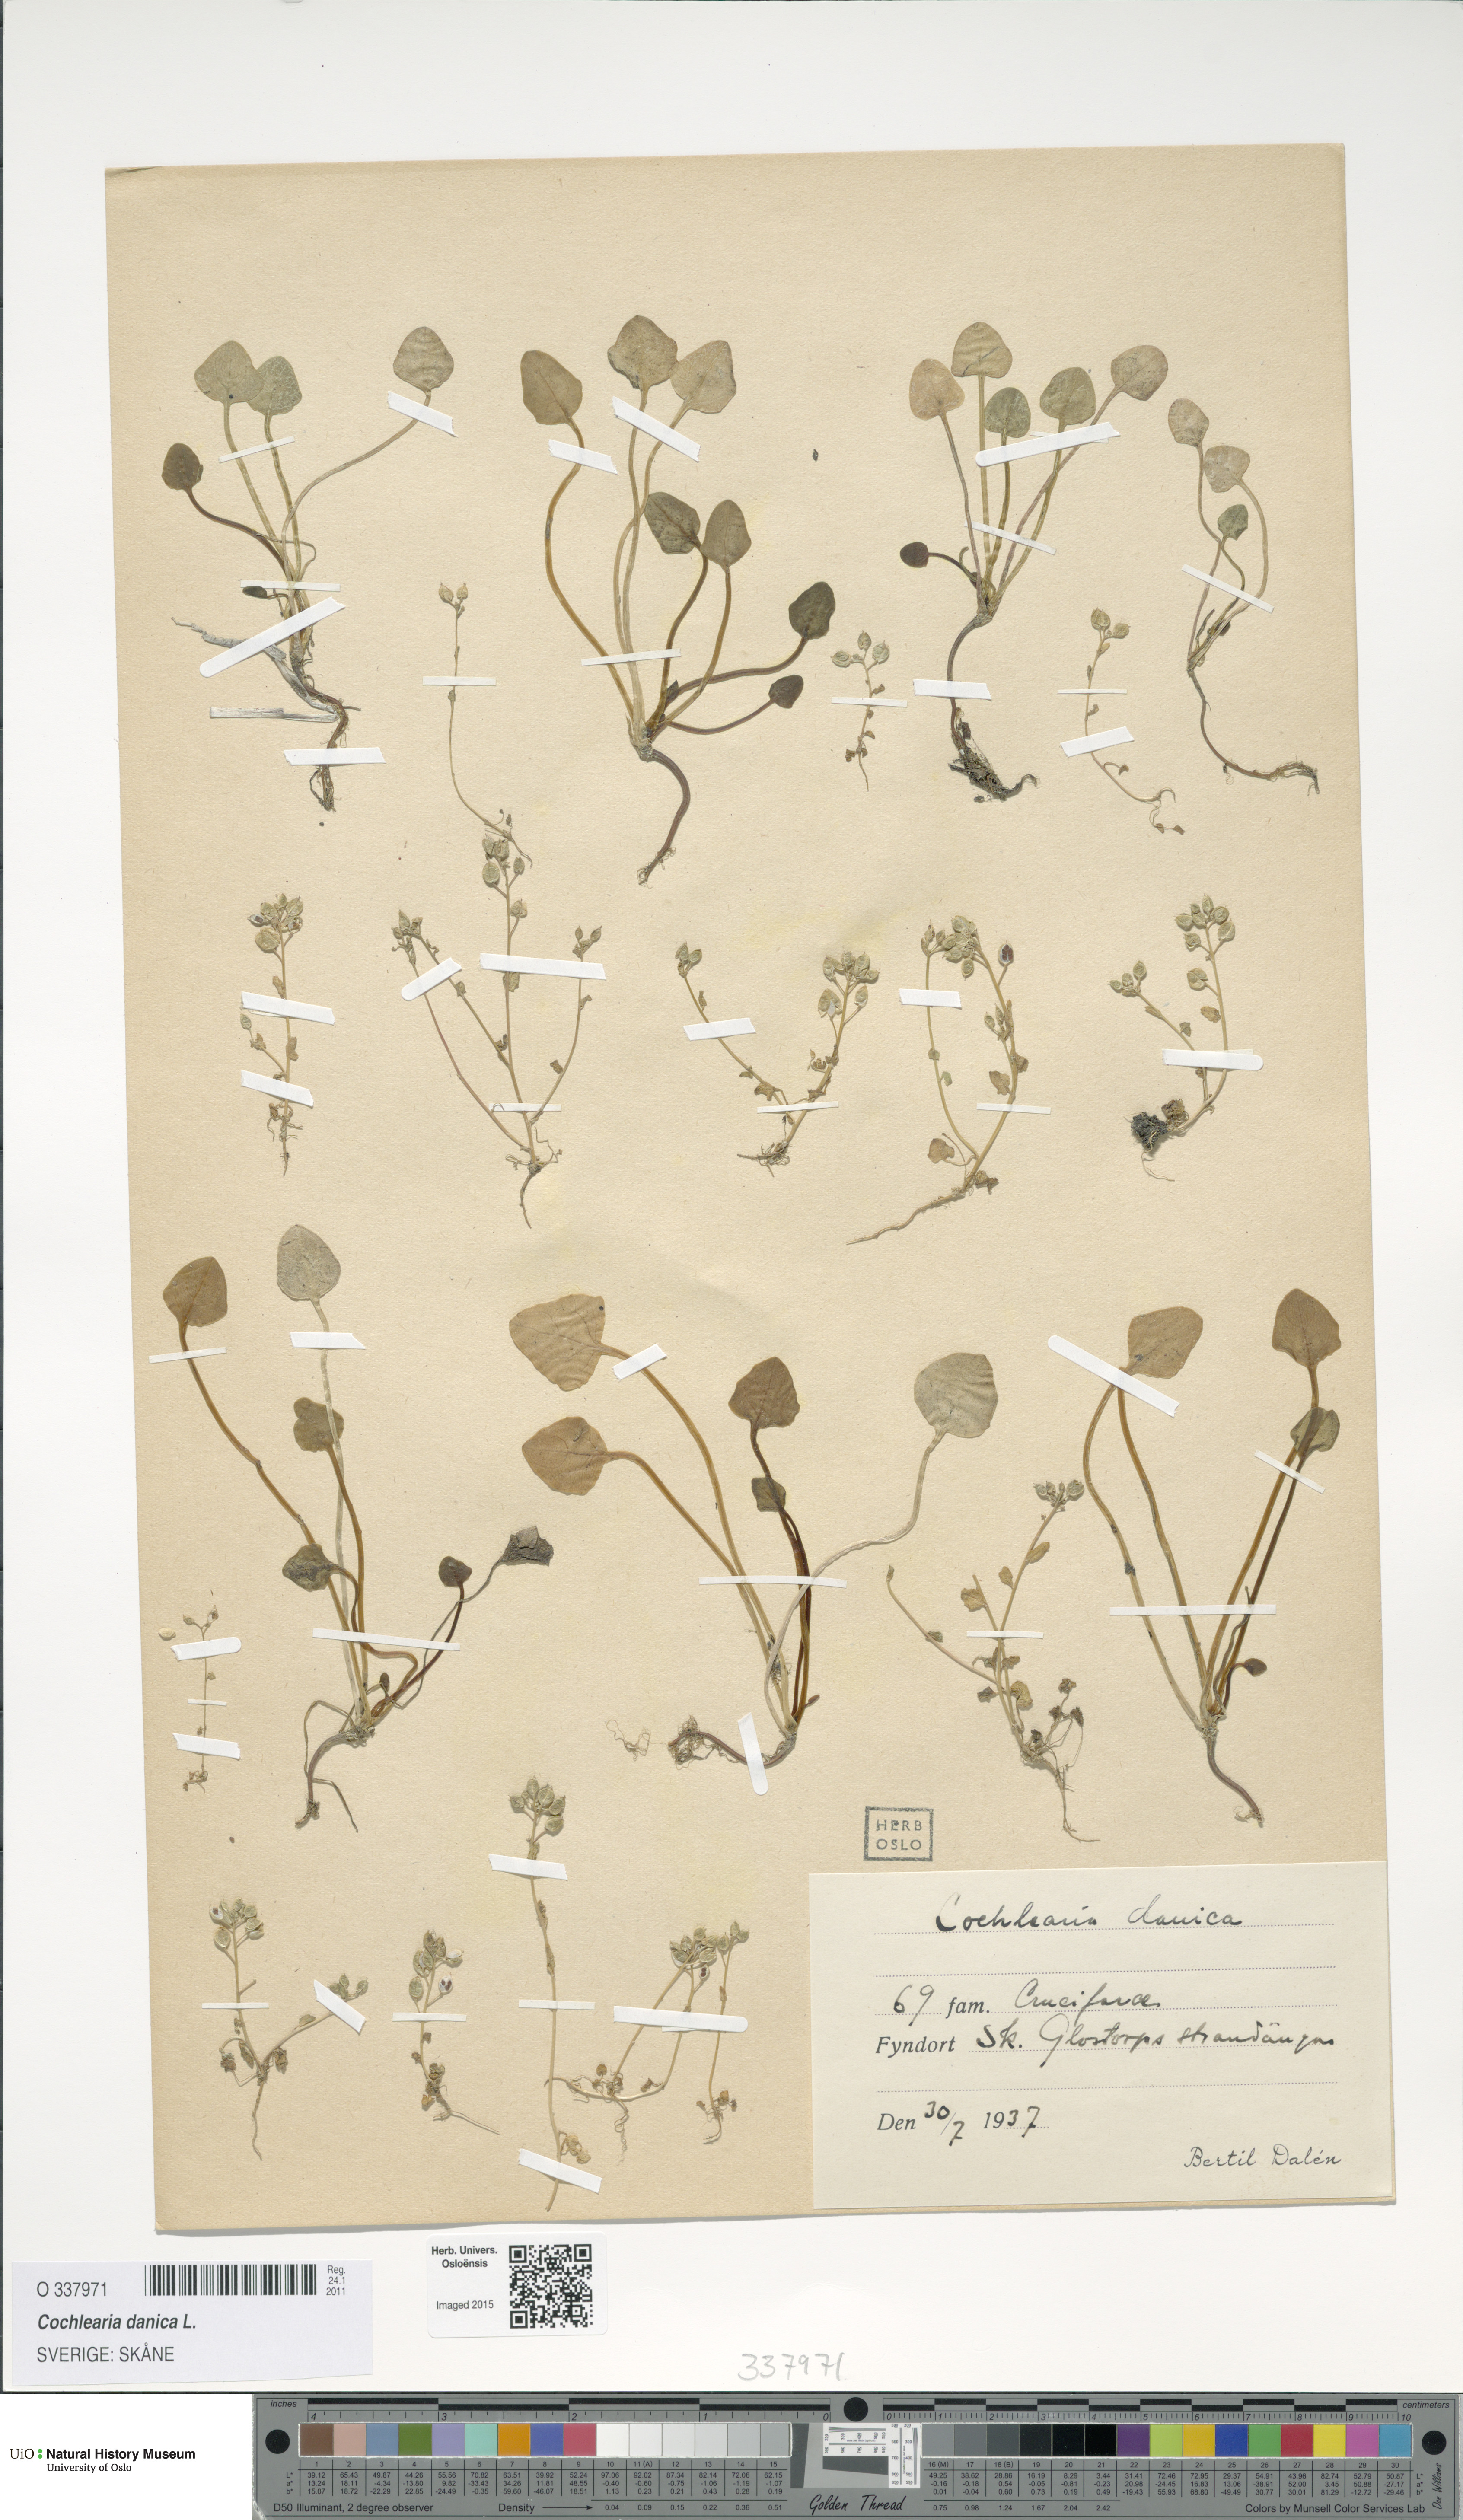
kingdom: Plantae
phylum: Tracheophyta
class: Magnoliopsida
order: Brassicales
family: Brassicaceae
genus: Cochlearia
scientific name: Cochlearia danica
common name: Early scurvygrass
